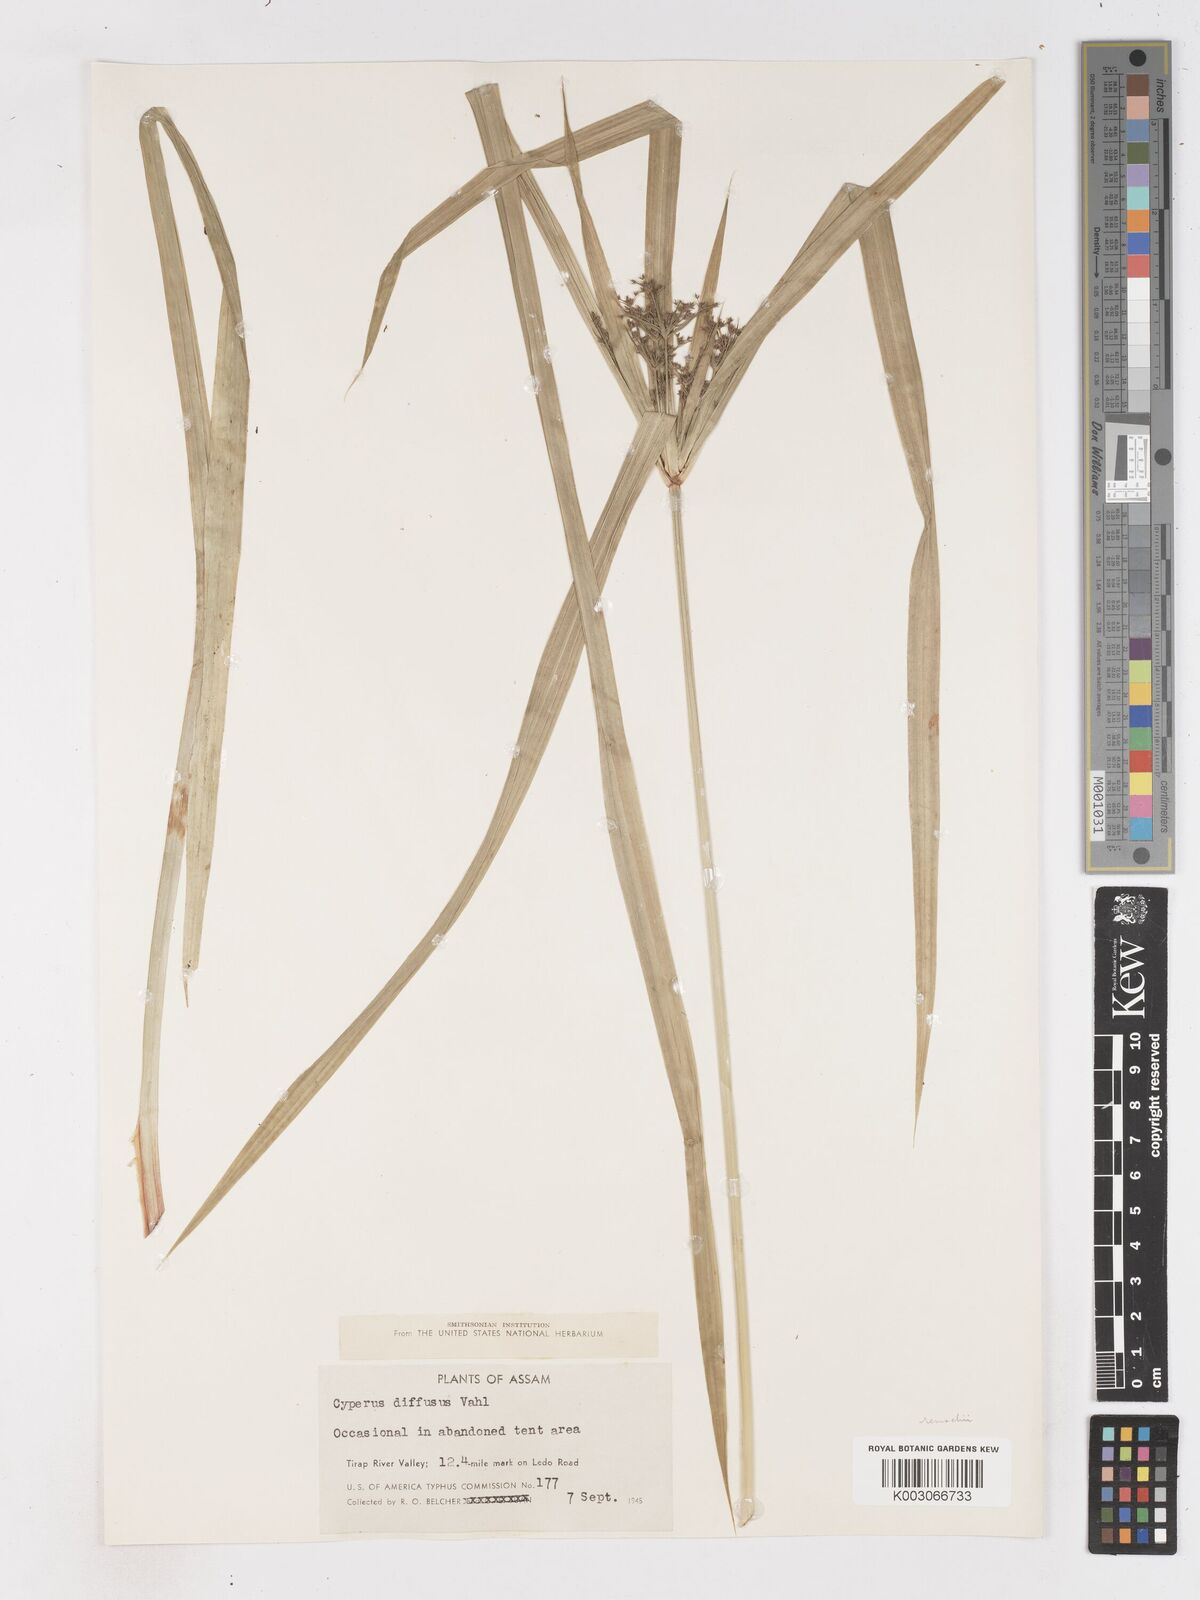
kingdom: Plantae
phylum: Tracheophyta
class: Liliopsida
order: Poales
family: Cyperaceae
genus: Cyperus
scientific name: Cyperus diffusus
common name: Dwarf umbrella grass
